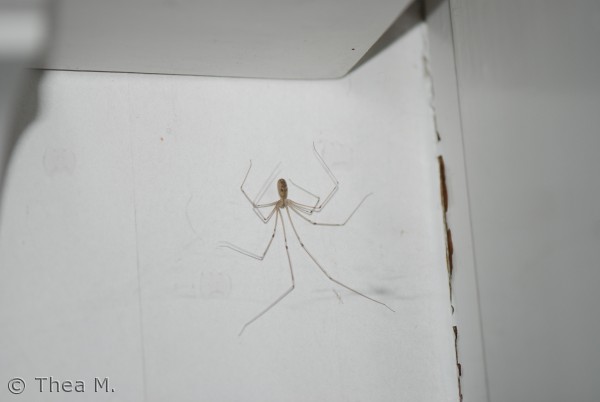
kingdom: Animalia
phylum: Arthropoda
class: Arachnida
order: Araneae
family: Pholcidae
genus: Pholcus
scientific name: Pholcus phalangioides
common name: Mejeredderkop
